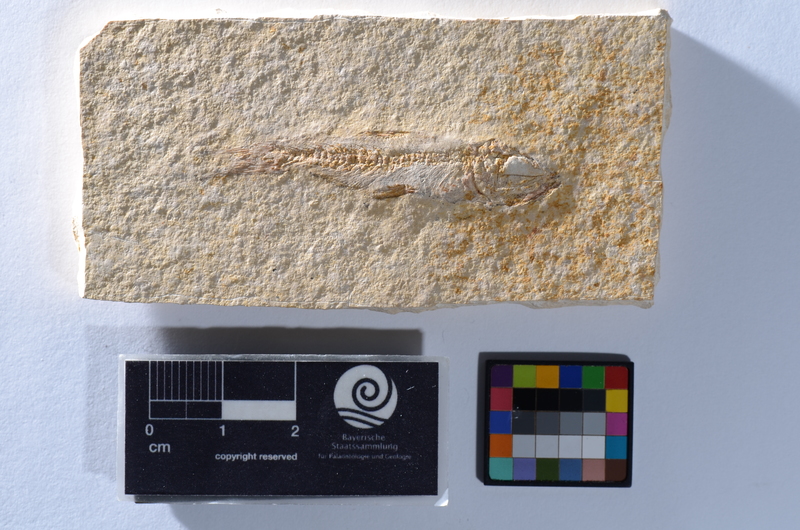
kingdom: Animalia
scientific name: Animalia
